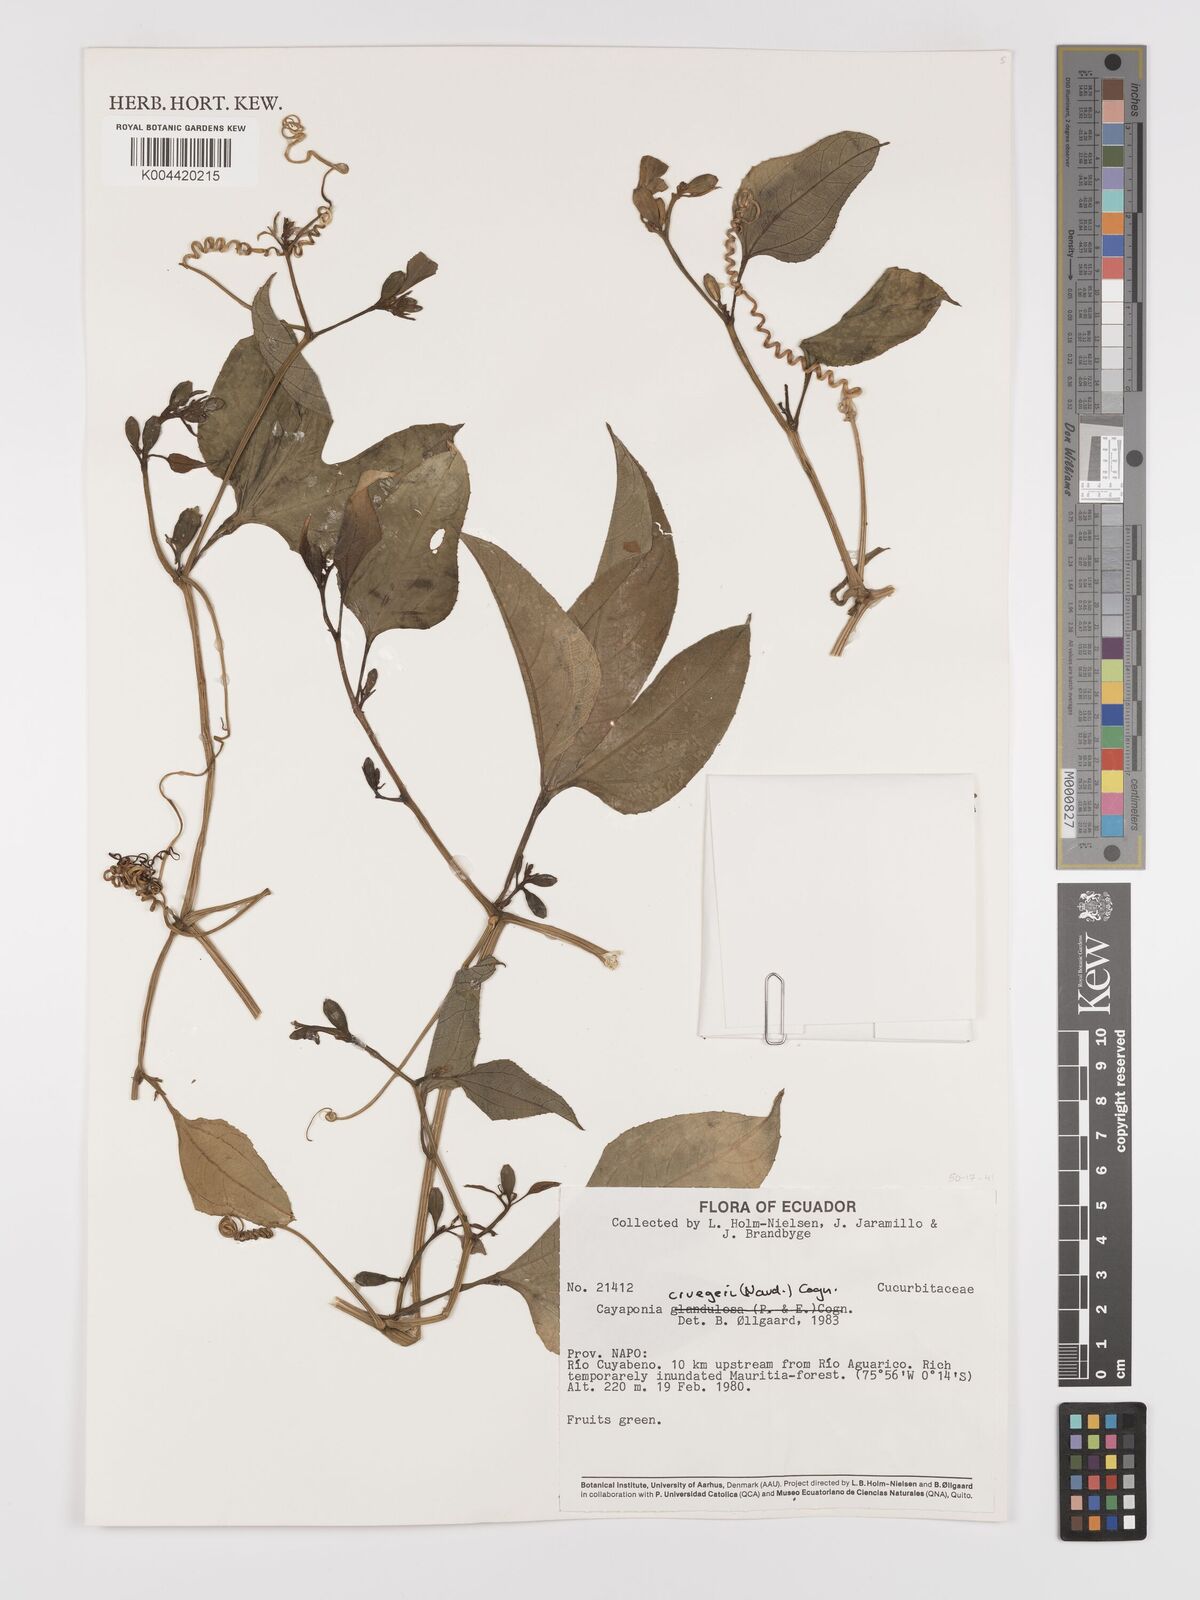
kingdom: Plantae
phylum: Tracheophyta
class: Magnoliopsida
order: Cucurbitales
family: Cucurbitaceae
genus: Cayaponia
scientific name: Cayaponia cruegeri
